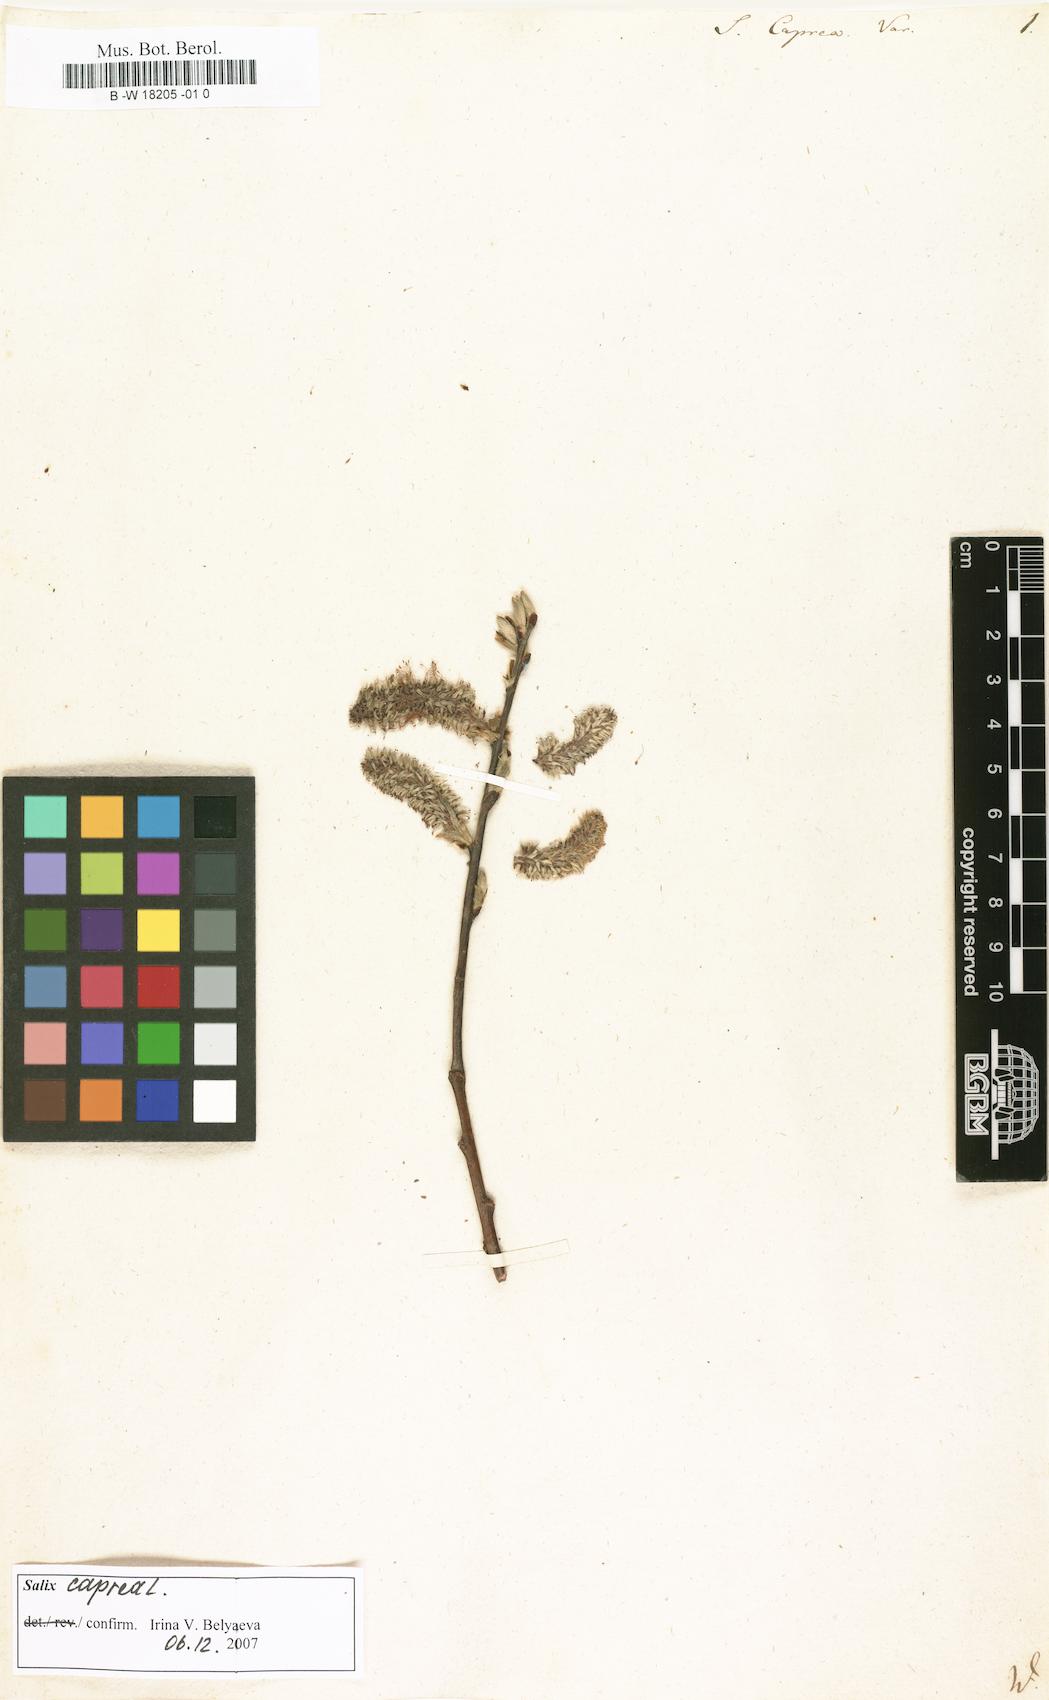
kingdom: Plantae
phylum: Tracheophyta
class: Magnoliopsida
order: Malpighiales
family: Salicaceae
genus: Salix
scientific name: Salix caprea
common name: Goat willow
